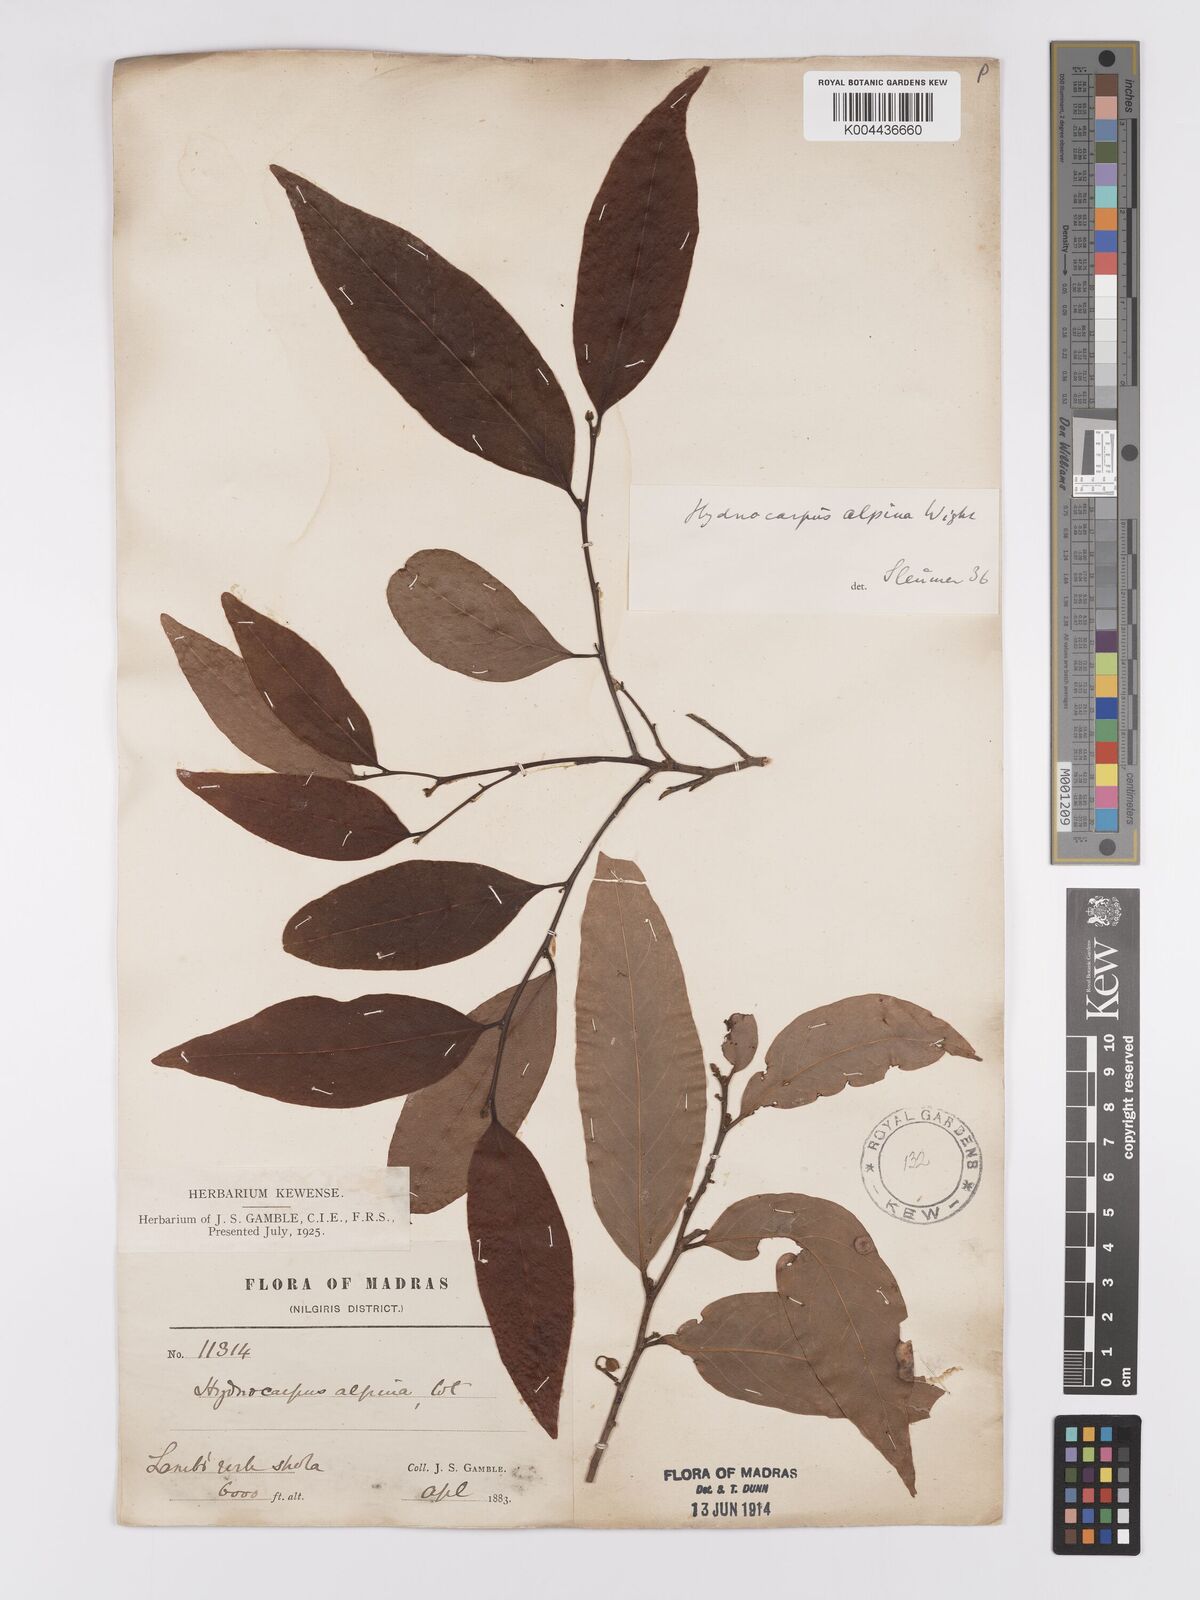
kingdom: Plantae
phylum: Tracheophyta
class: Magnoliopsida
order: Malpighiales
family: Achariaceae
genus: Hydnocarpus
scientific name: Hydnocarpus alpinus
